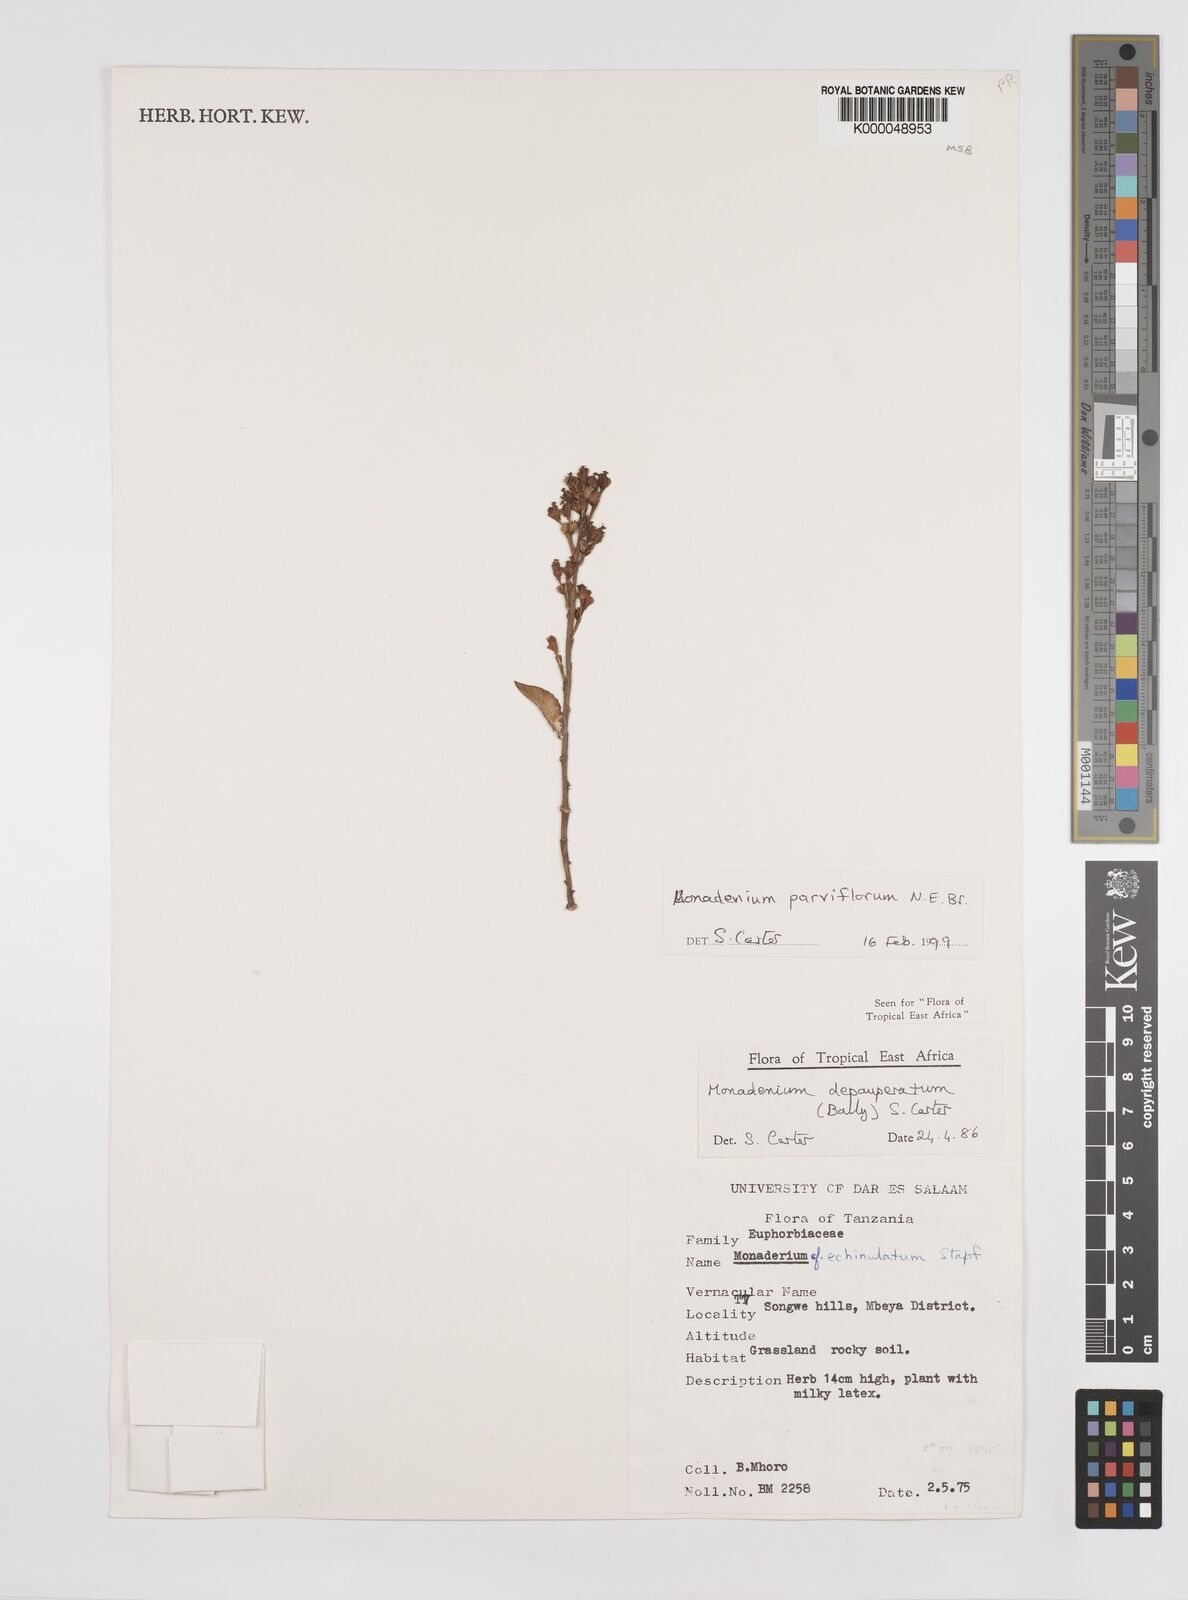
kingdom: Plantae
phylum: Tracheophyta
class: Magnoliopsida
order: Malpighiales
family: Euphorbiaceae
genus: Euphorbia
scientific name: Euphorbia neoparviflora
